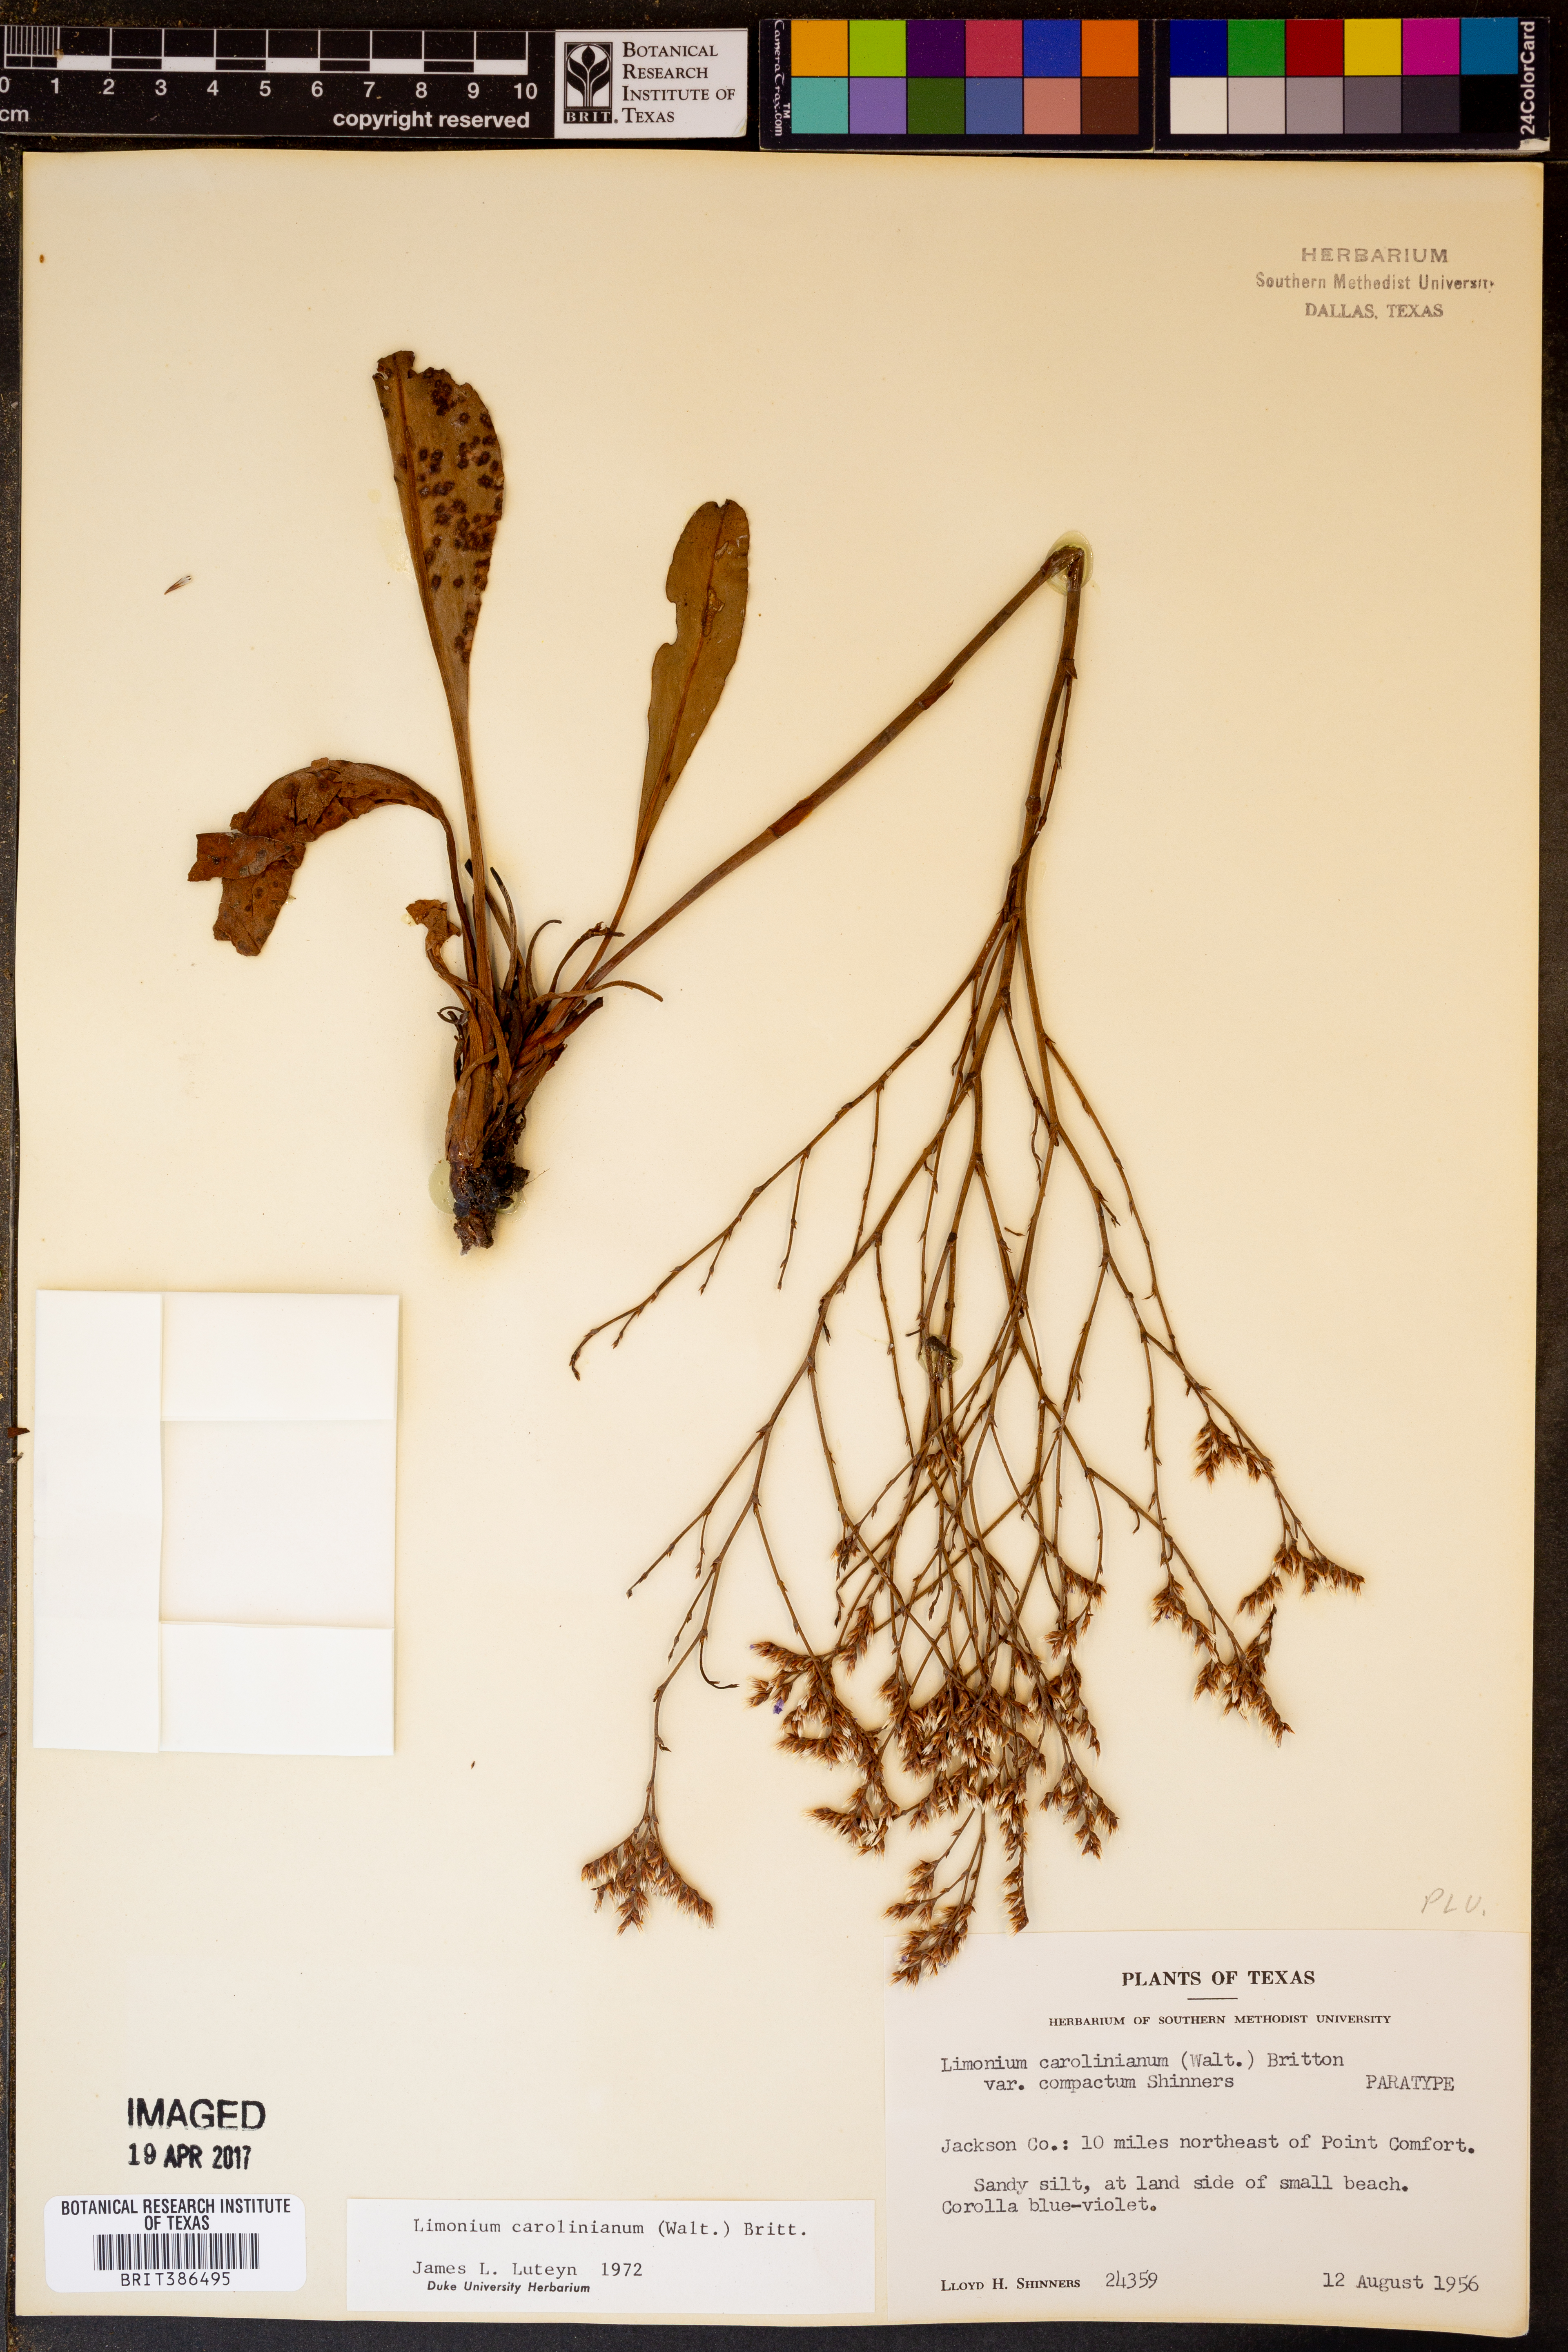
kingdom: Plantae
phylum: Tracheophyta
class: Magnoliopsida
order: Caryophyllales
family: Plumbaginaceae
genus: Limonium
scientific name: Limonium carolinianum
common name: Carolina sea lavender
